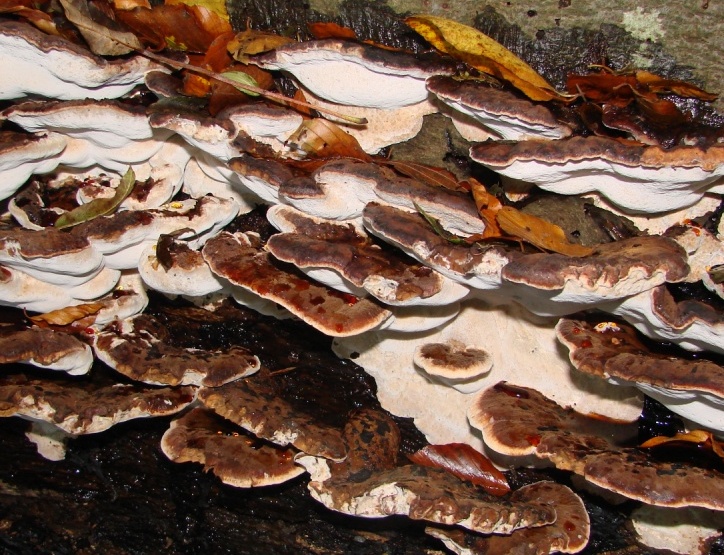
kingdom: Fungi
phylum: Basidiomycota
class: Agaricomycetes
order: Polyporales
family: Ischnodermataceae
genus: Ischnoderma
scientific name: Ischnoderma resinosum
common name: løv-tjæreporesvamp
